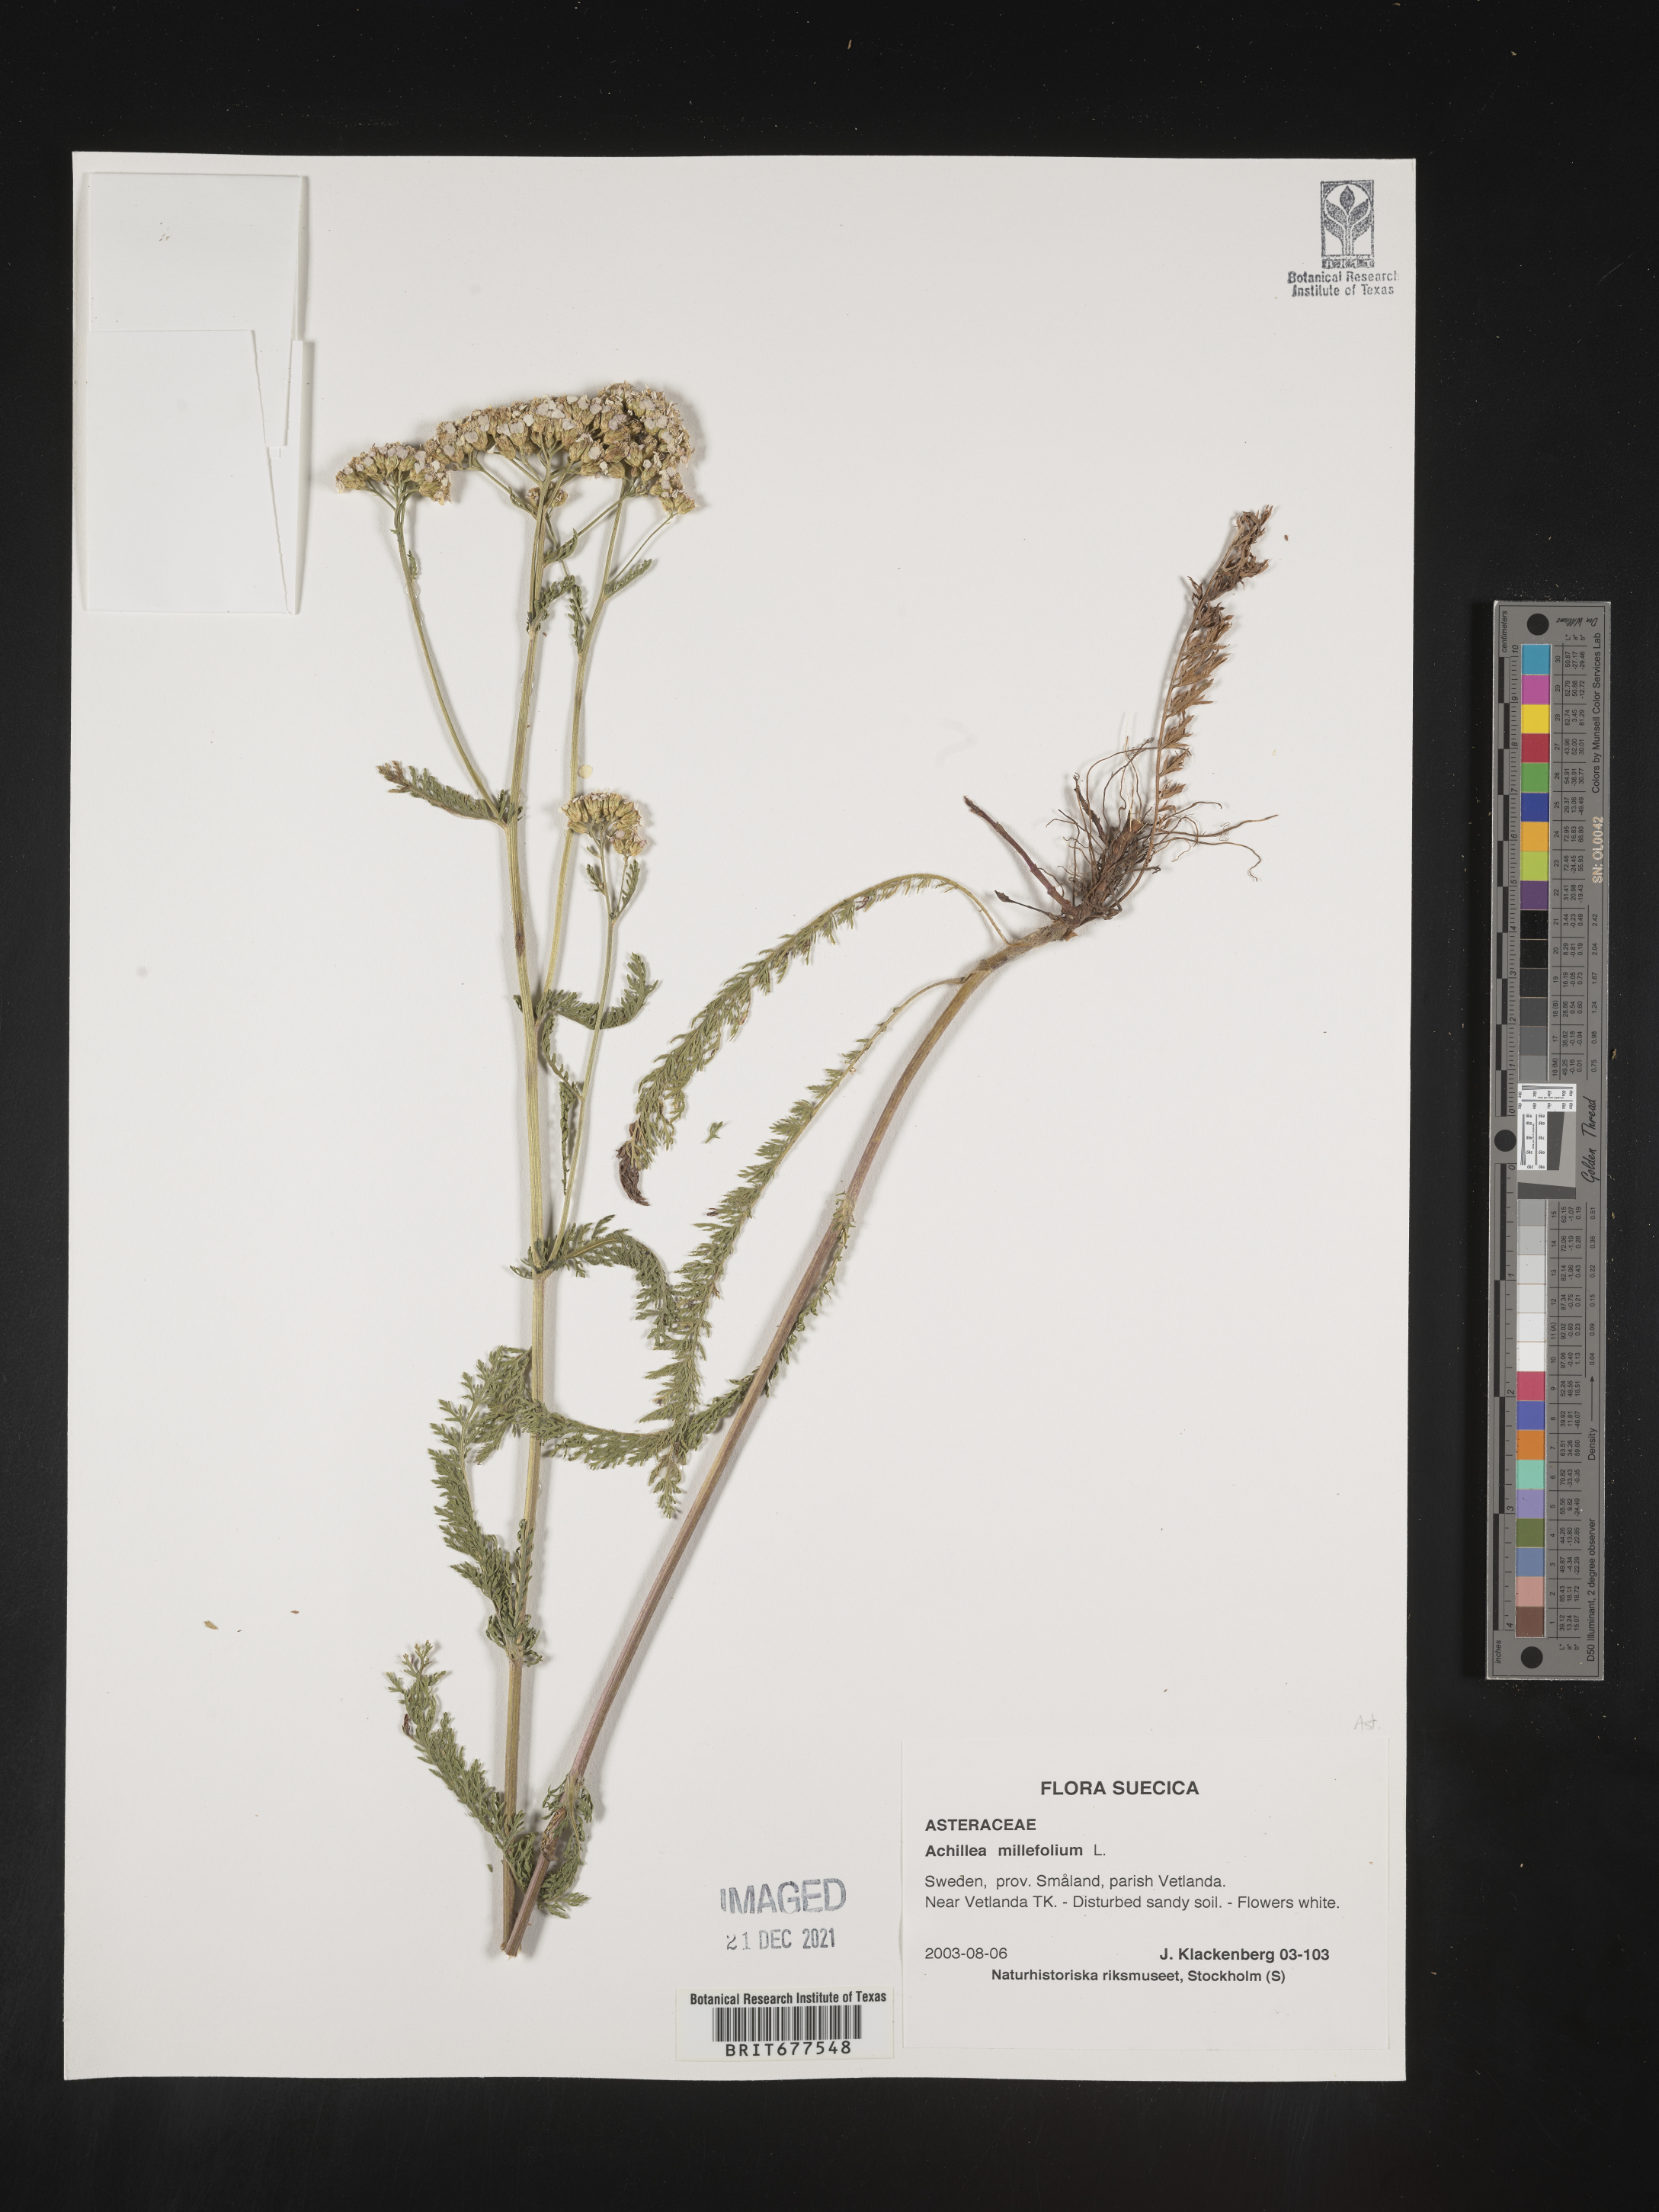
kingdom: Plantae
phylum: Tracheophyta
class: Magnoliopsida
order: Asterales
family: Asteraceae
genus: Achillea
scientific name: Achillea millefolium
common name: Yarrow
